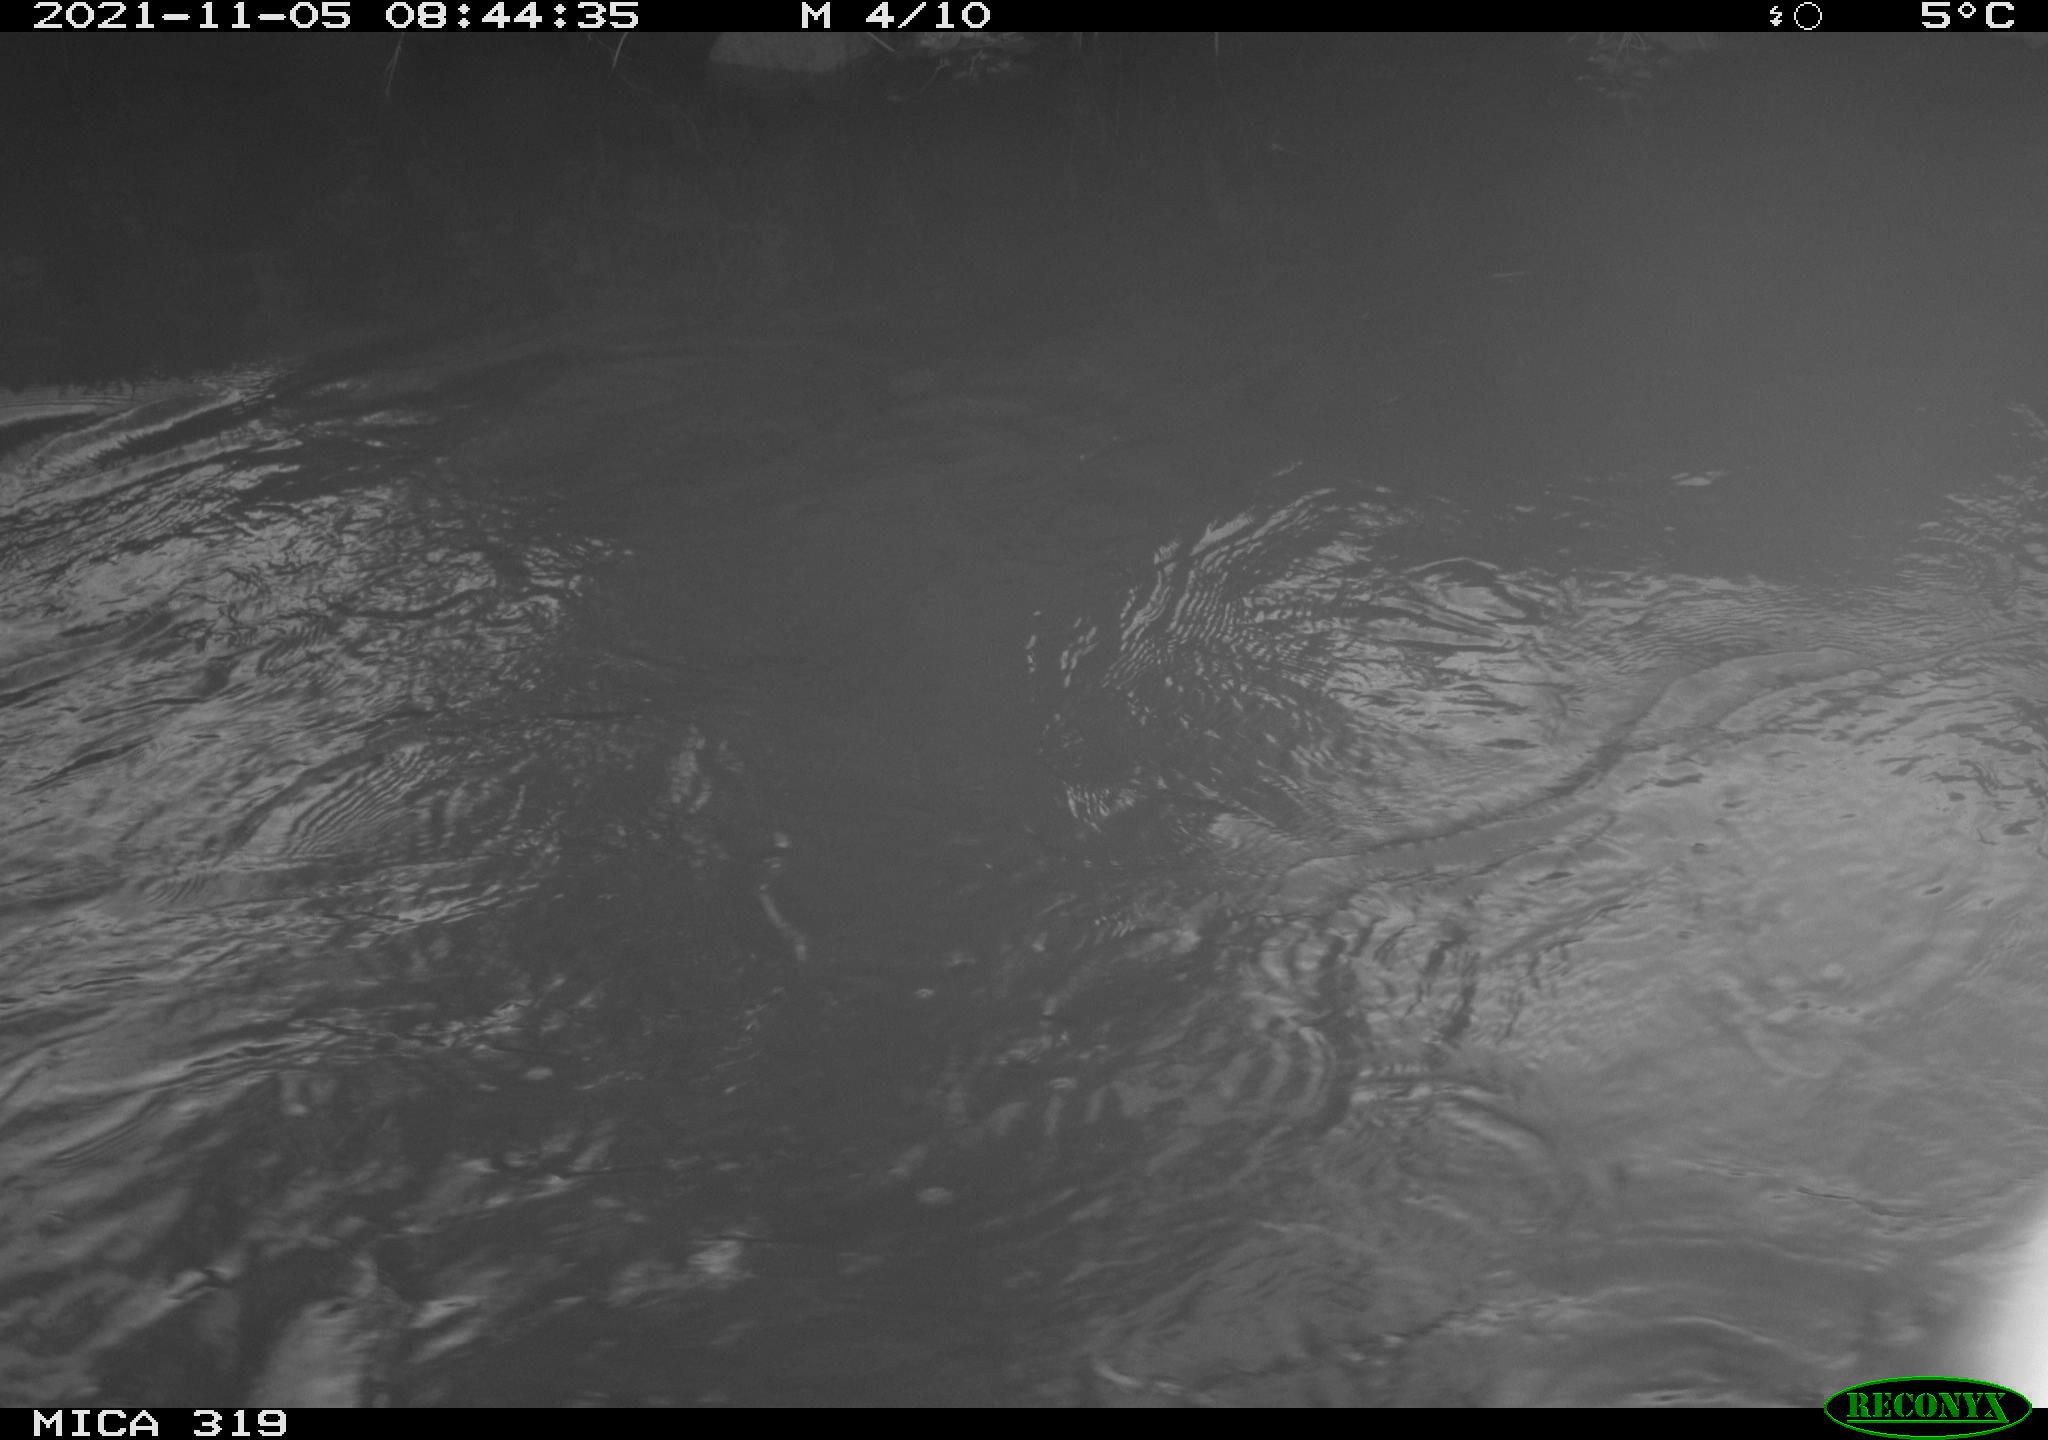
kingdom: Animalia
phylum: Chordata
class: Aves
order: Anseriformes
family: Anatidae
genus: Anas
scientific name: Anas platyrhynchos
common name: Mallard
